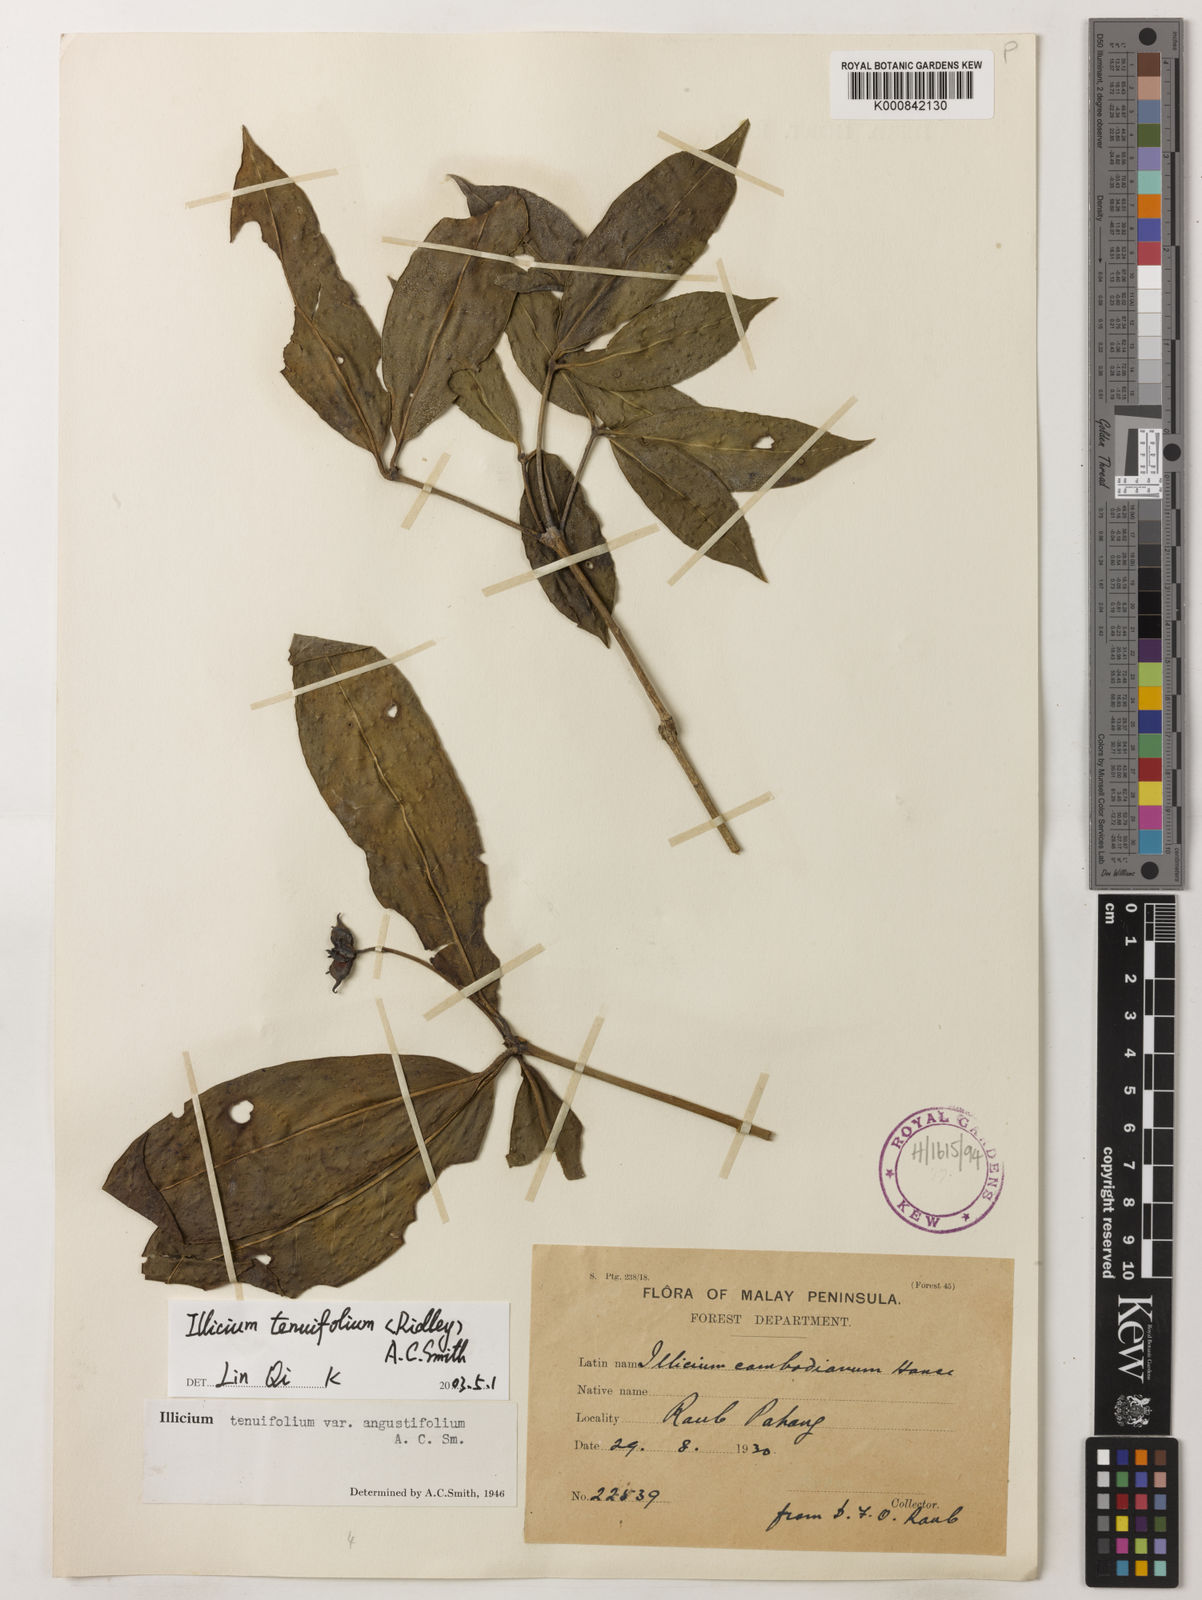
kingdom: Plantae
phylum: Tracheophyta
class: Magnoliopsida
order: Austrobaileyales
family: Schisandraceae
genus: Illicium
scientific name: Illicium tenuifolium
